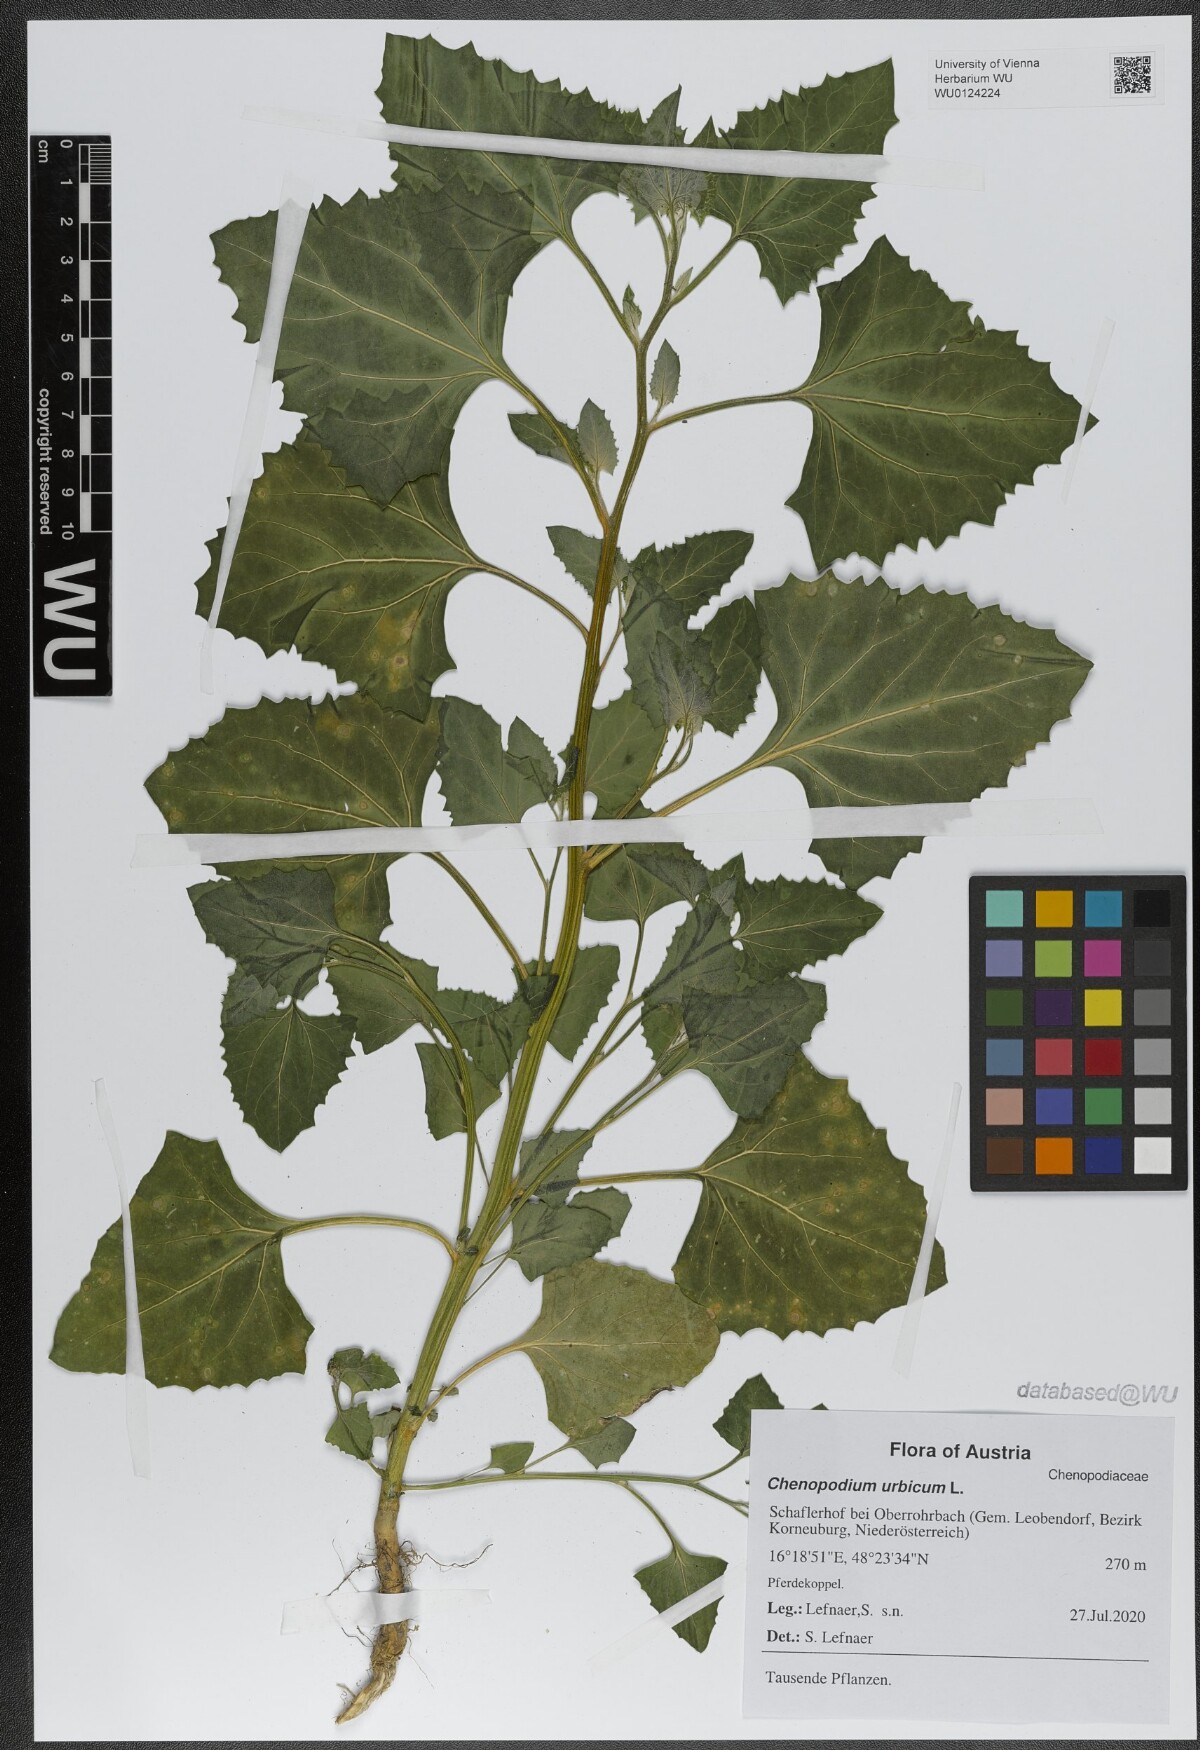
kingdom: Plantae
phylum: Tracheophyta
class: Magnoliopsida
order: Caryophyllales
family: Amaranthaceae
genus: Oxybasis
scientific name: Oxybasis urbica
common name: City goosefoot
